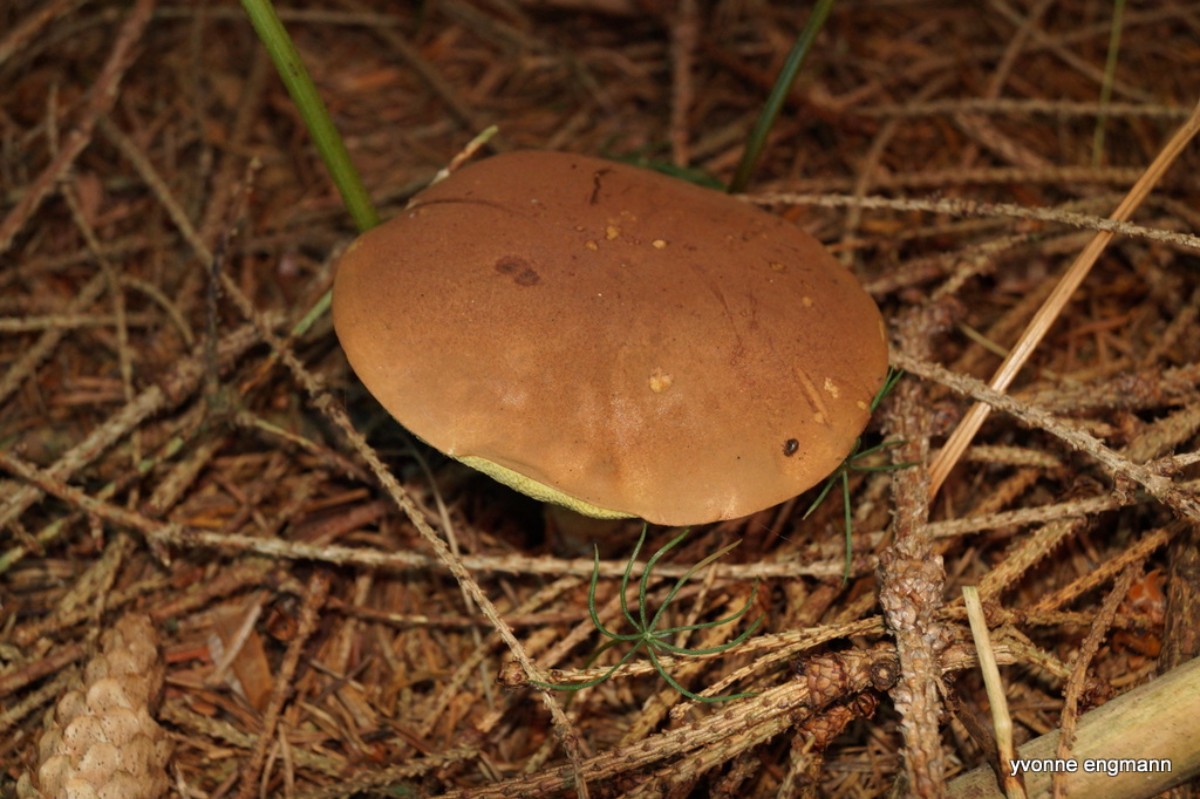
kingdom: Fungi
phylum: Basidiomycota
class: Agaricomycetes
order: Boletales
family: Boletaceae
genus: Imleria
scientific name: Imleria badia
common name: brunstokket rørhat
